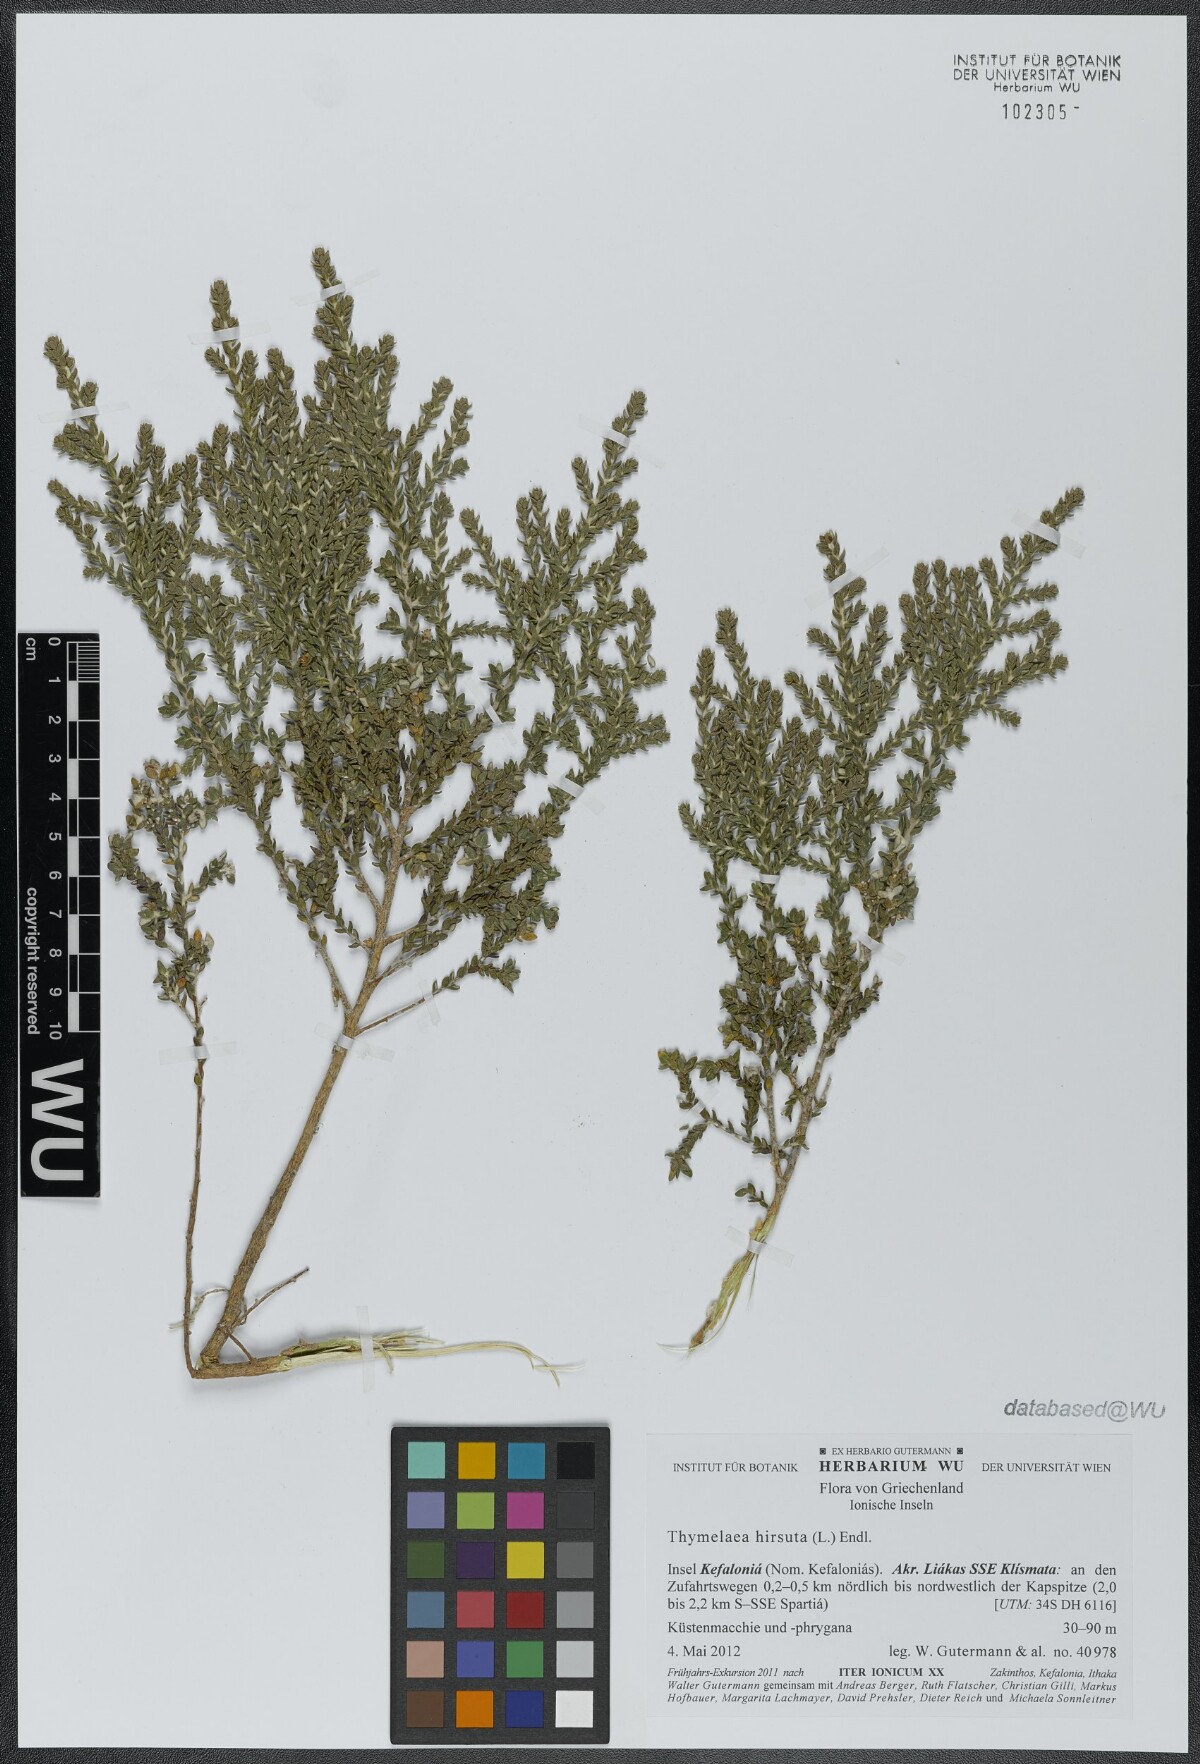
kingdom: Plantae
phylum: Tracheophyta
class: Magnoliopsida
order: Malvales
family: Thymelaeaceae
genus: Thymelaea
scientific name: Thymelaea hirsuta
